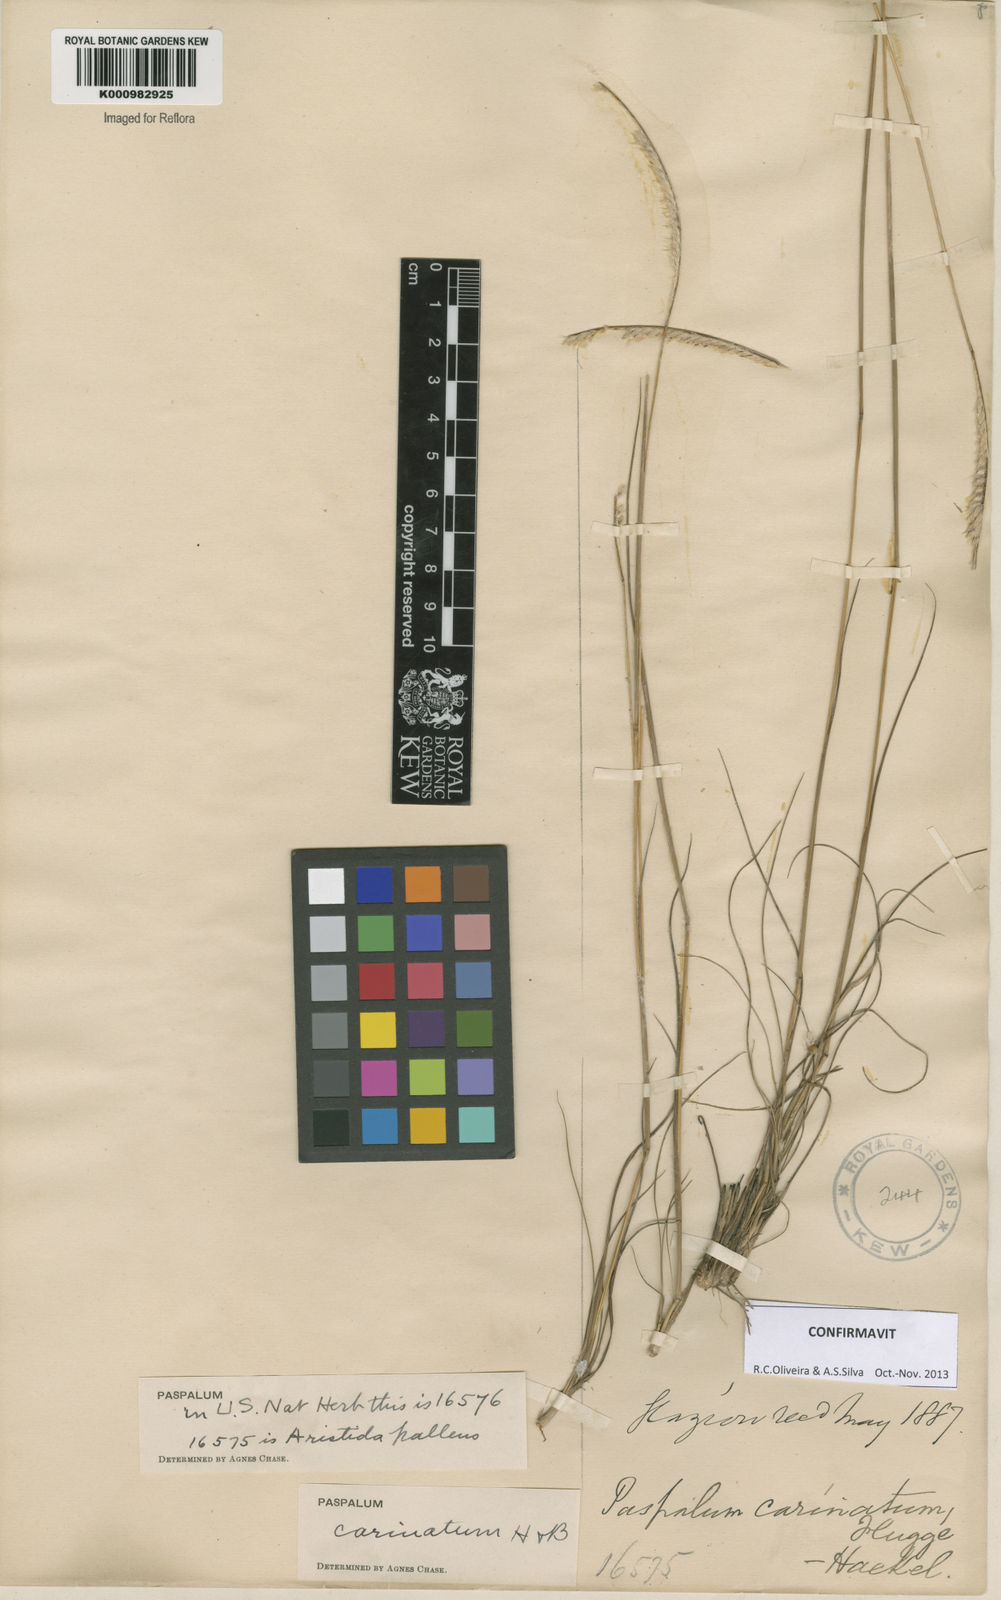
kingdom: Plantae
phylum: Tracheophyta
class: Liliopsida
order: Poales
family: Poaceae
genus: Paspalum
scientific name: Paspalum
